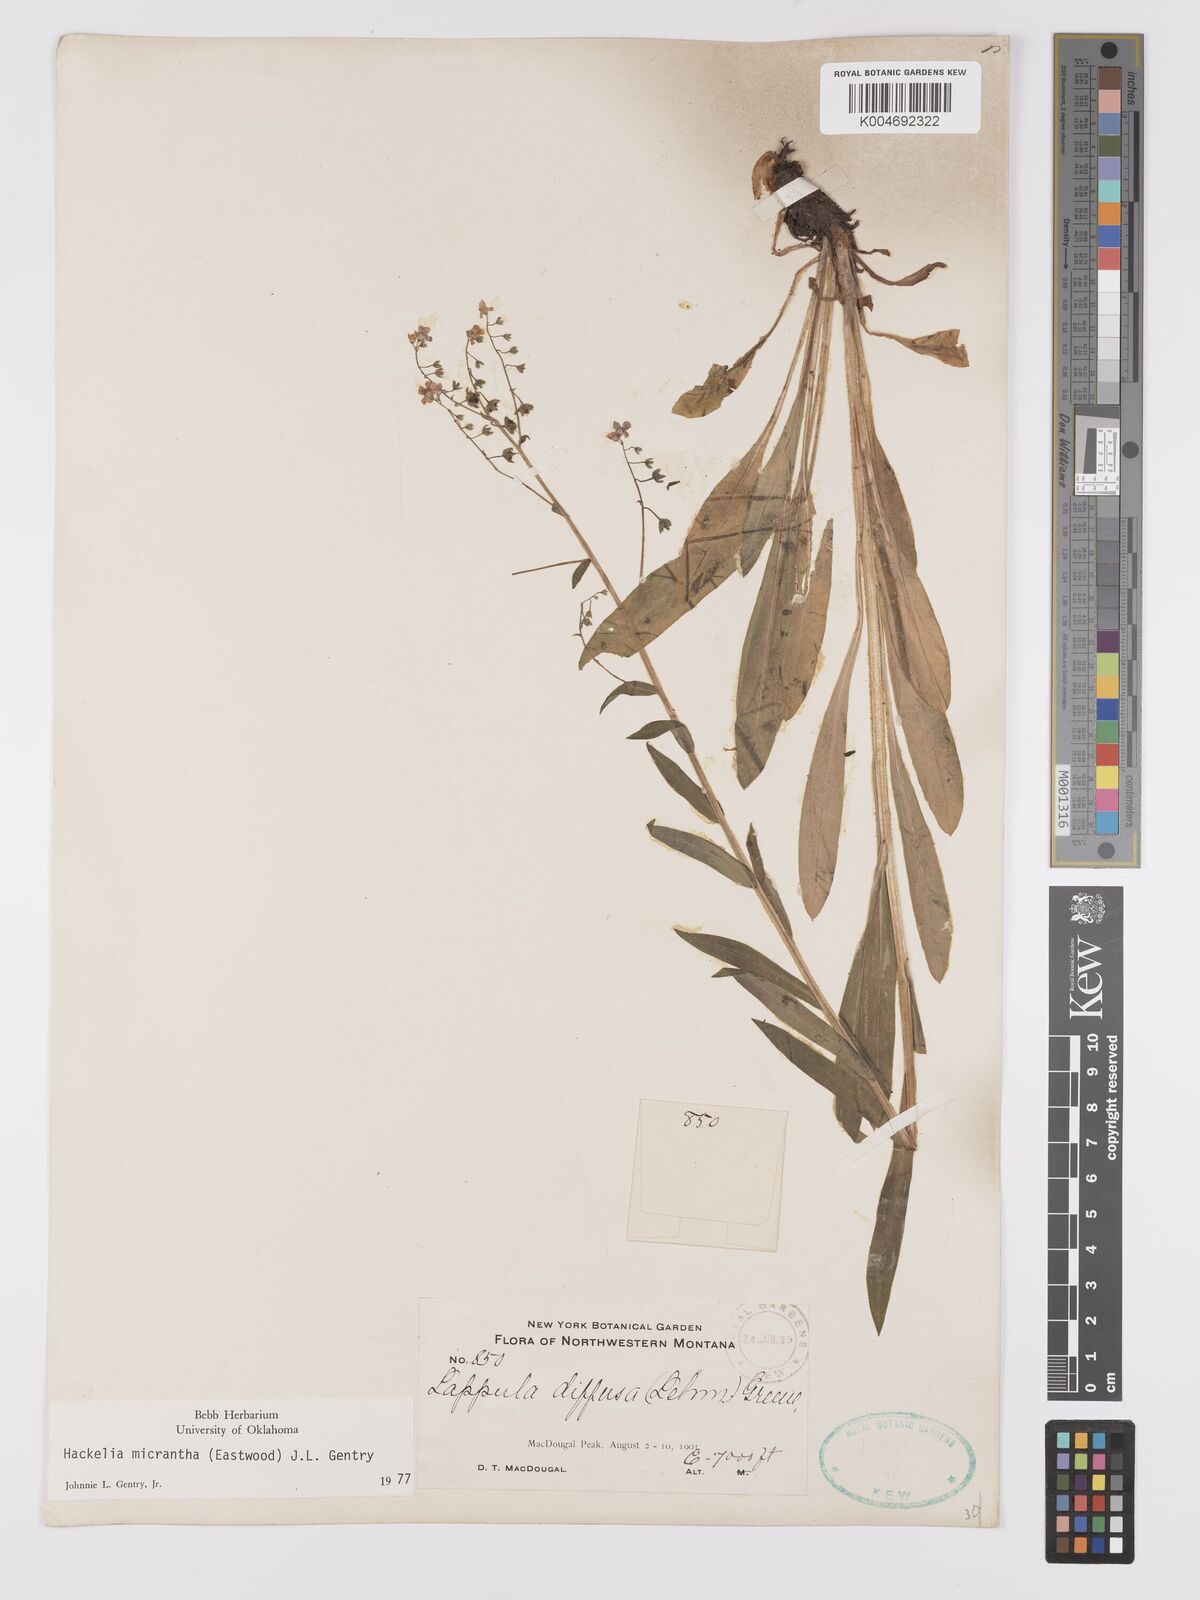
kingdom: Plantae
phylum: Tracheophyta
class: Magnoliopsida
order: Boraginales
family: Boraginaceae
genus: Hackelia
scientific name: Hackelia micrantha
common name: Meadow stickseed
